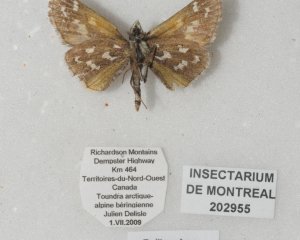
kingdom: Animalia
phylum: Arthropoda
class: Insecta
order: Lepidoptera
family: Hesperiidae
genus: Polites
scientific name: Polites sabuleti
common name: Draco Skipper
